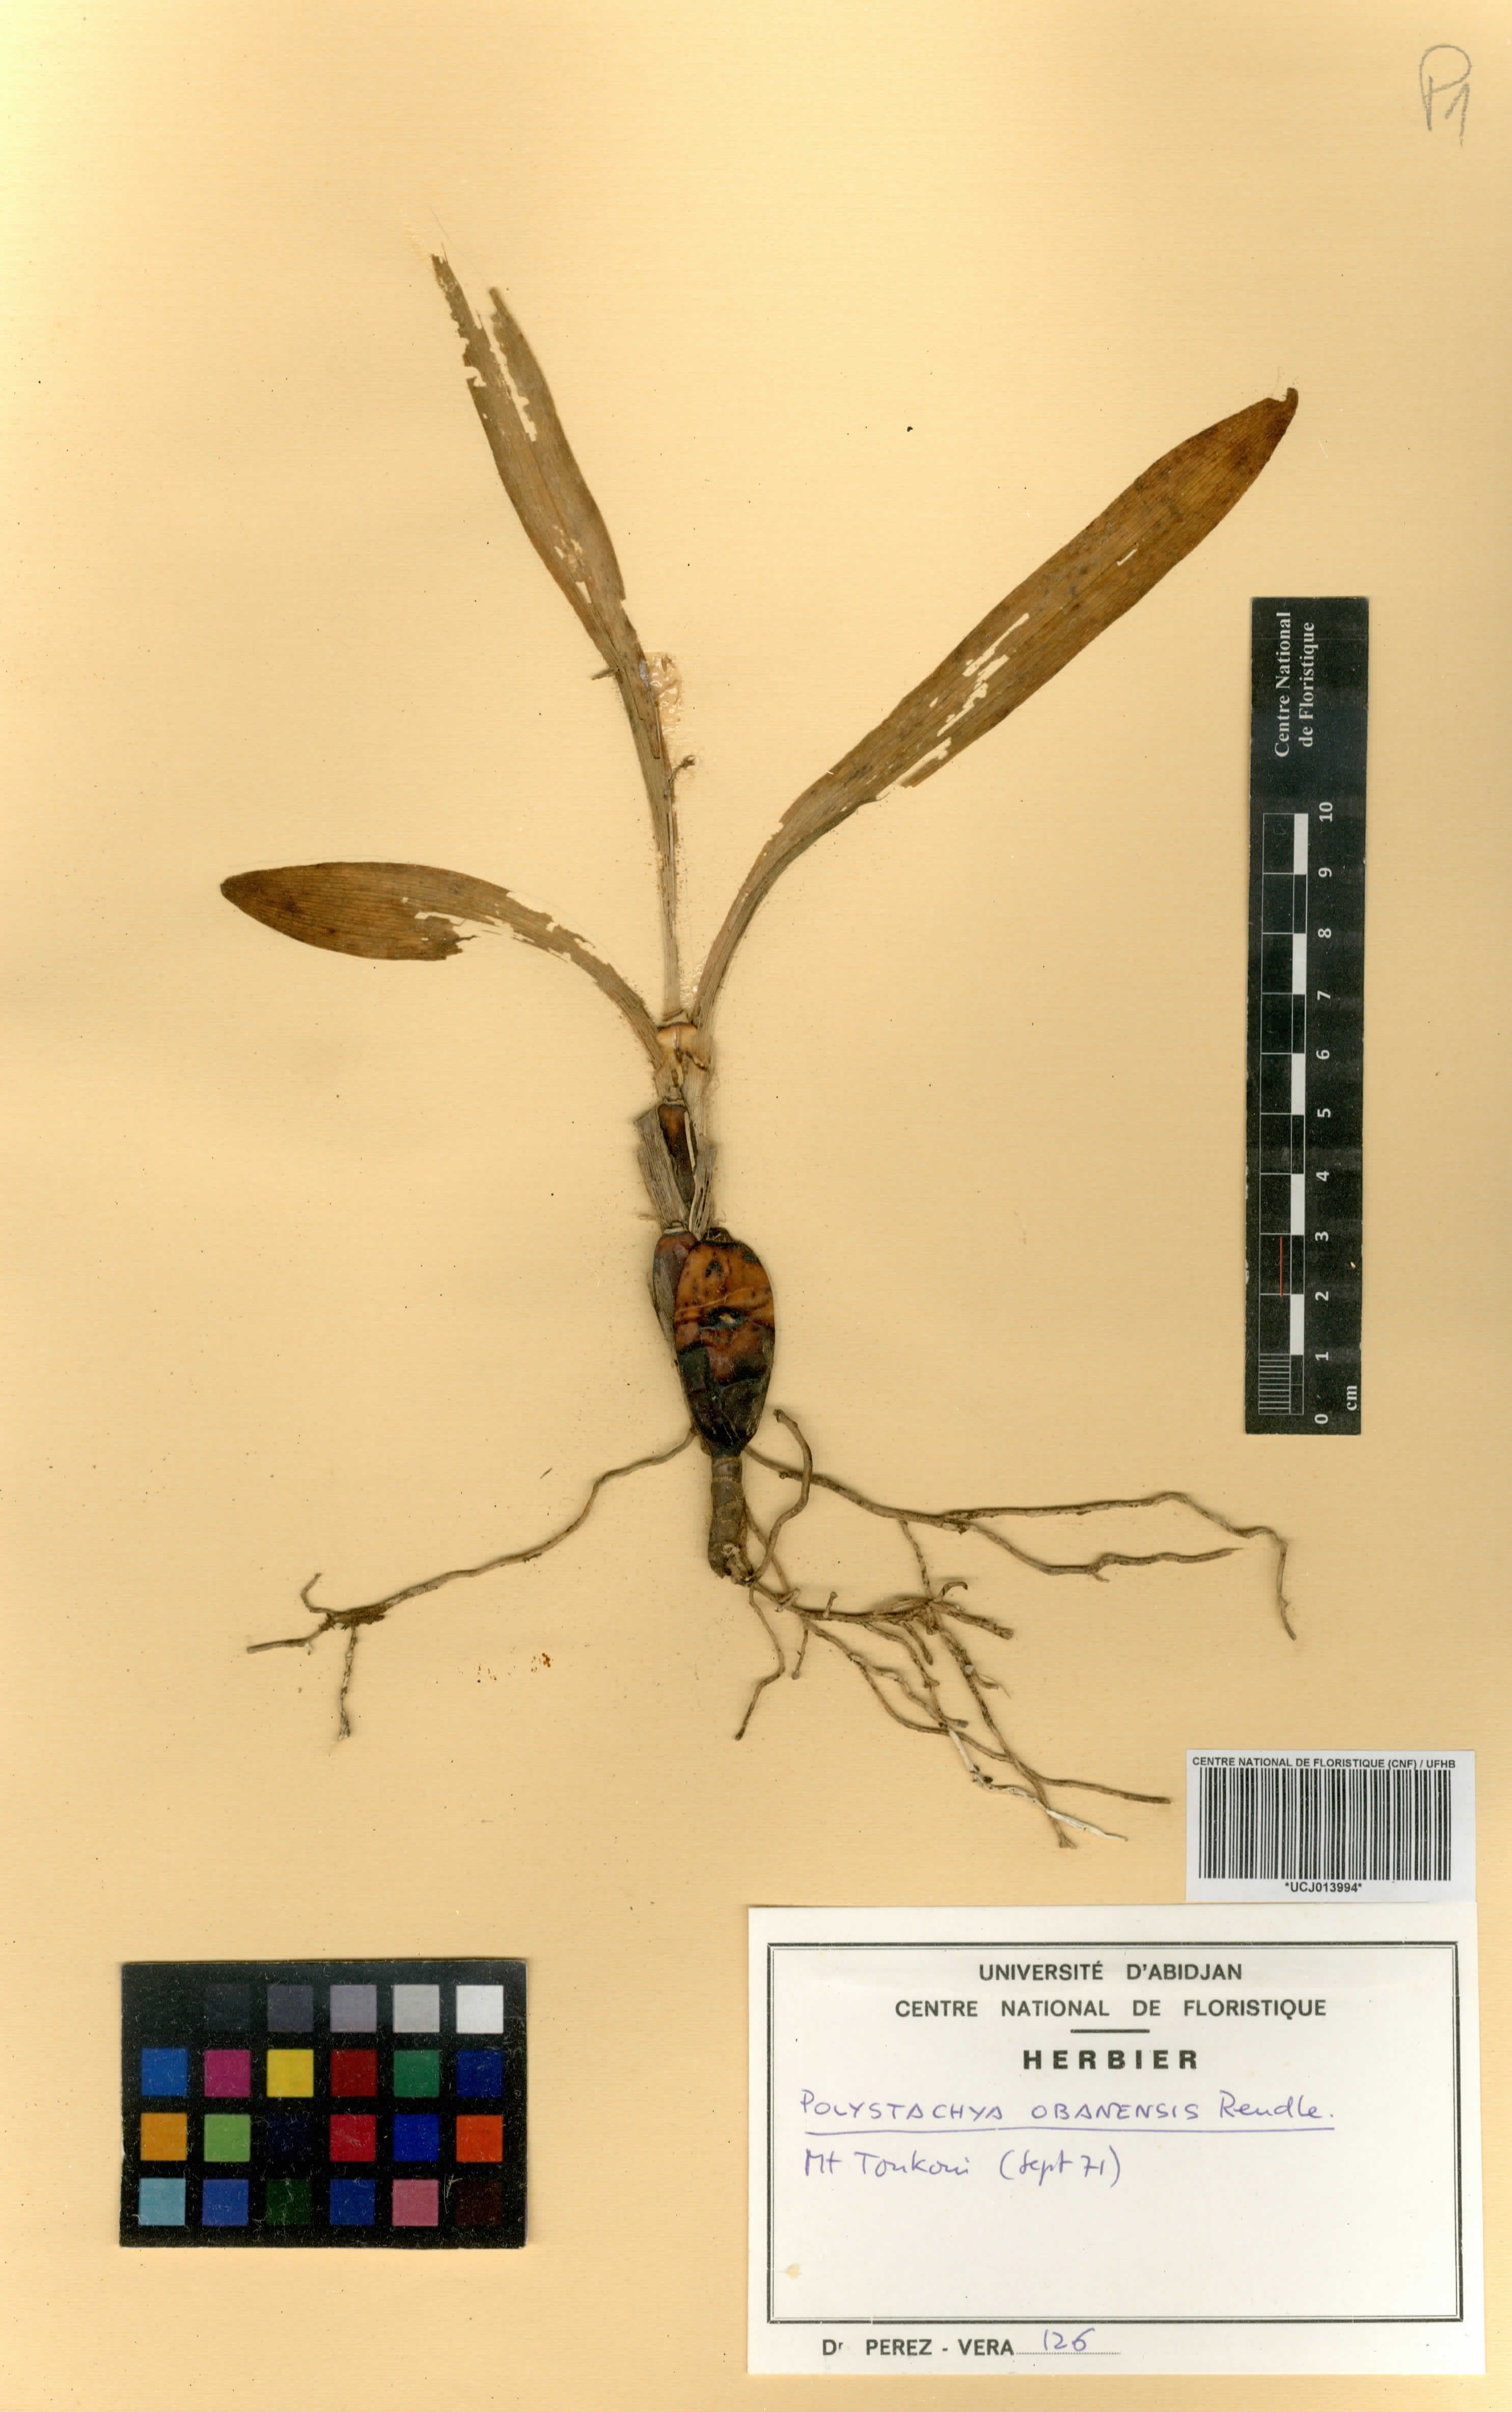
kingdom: Plantae
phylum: Tracheophyta
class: Liliopsida
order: Asparagales
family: Orchidaceae
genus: Polystachya
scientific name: Polystachya obanensis
